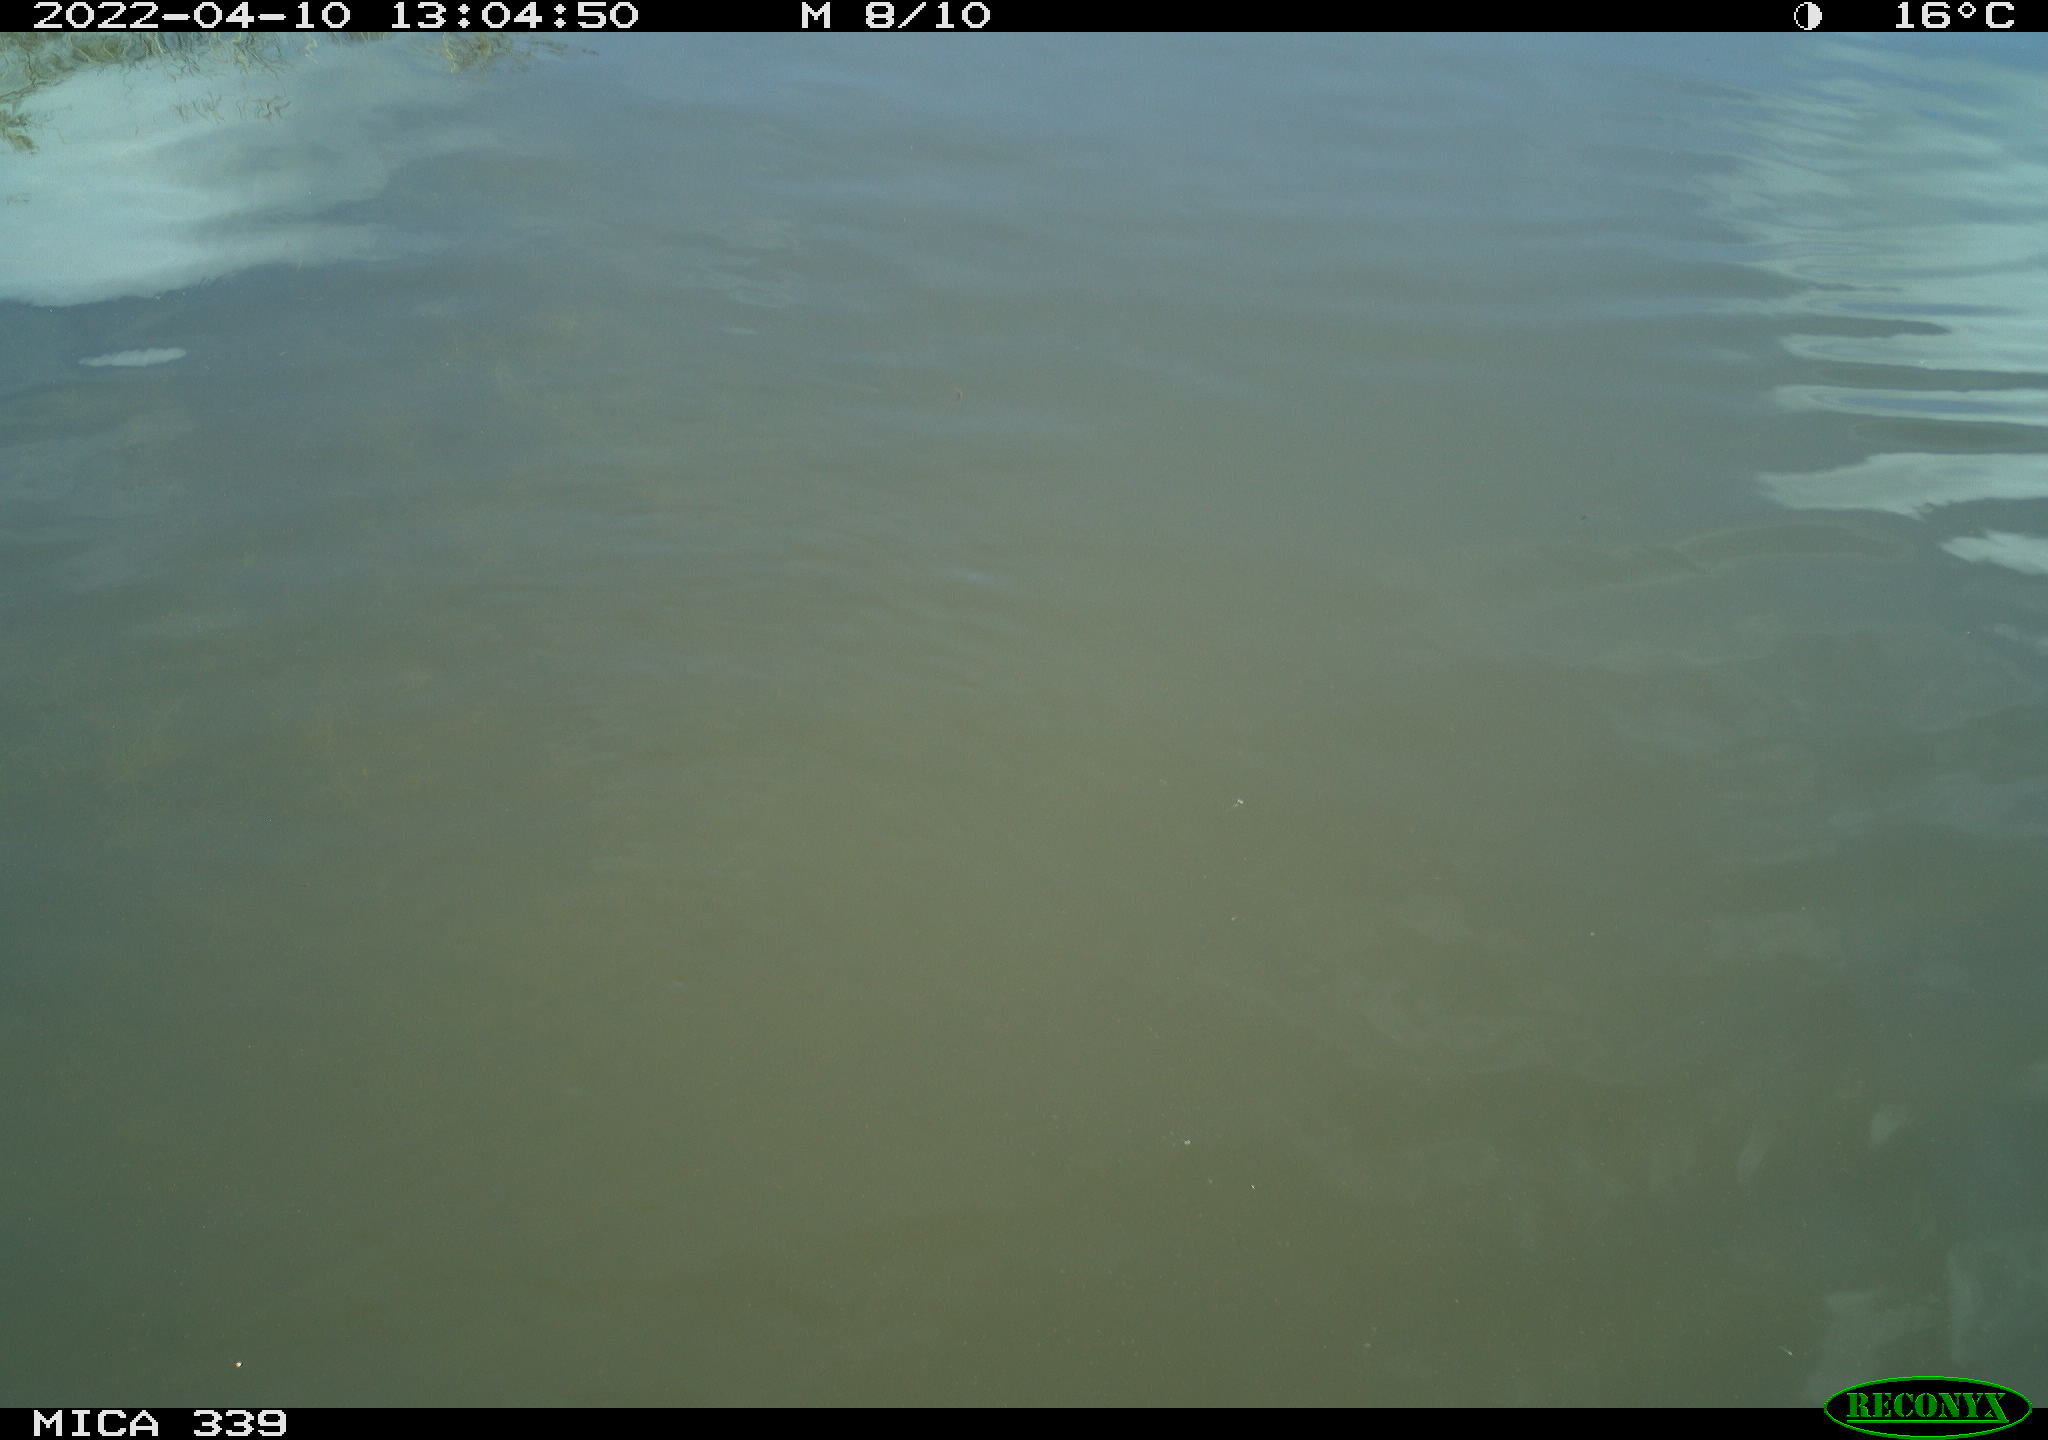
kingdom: Animalia
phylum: Chordata
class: Aves
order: Suliformes
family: Phalacrocoracidae
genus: Phalacrocorax
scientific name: Phalacrocorax carbo
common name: Great cormorant
